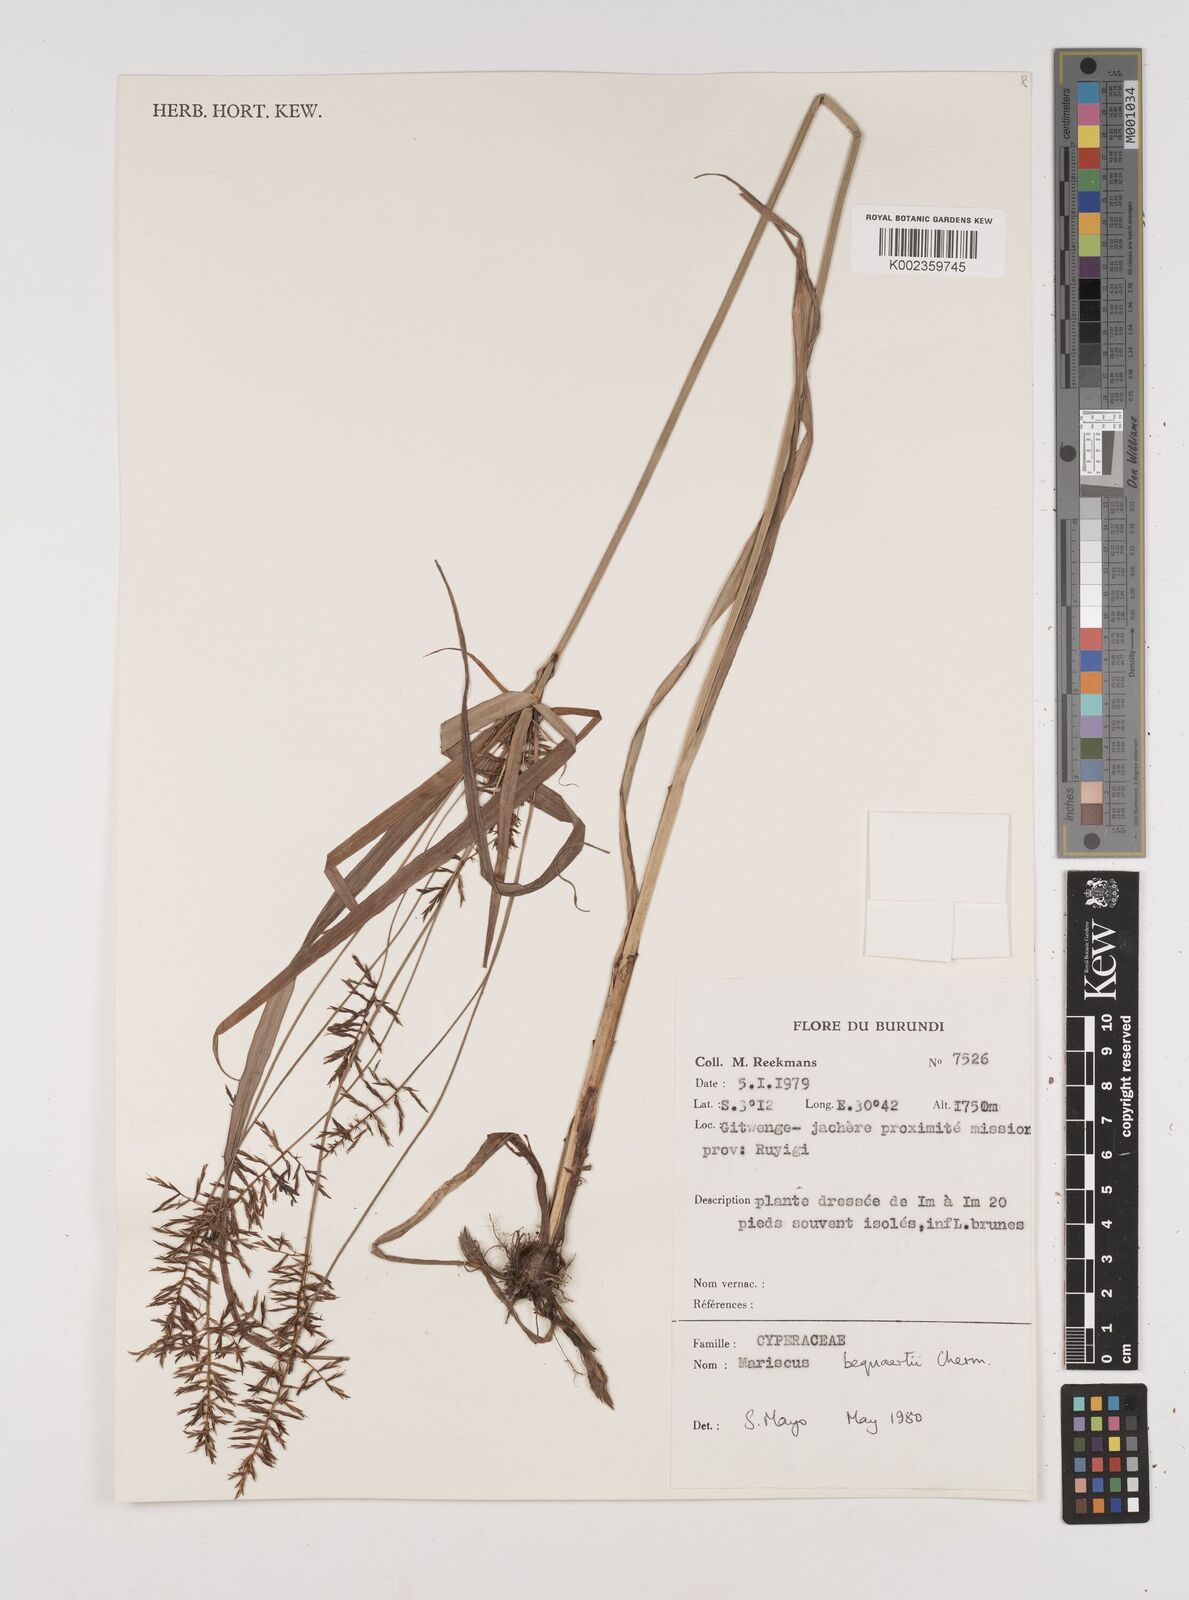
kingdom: Plantae
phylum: Tracheophyta
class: Liliopsida
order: Poales
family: Cyperaceae
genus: Cyperus
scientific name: Cyperus ferrugineoviridis
